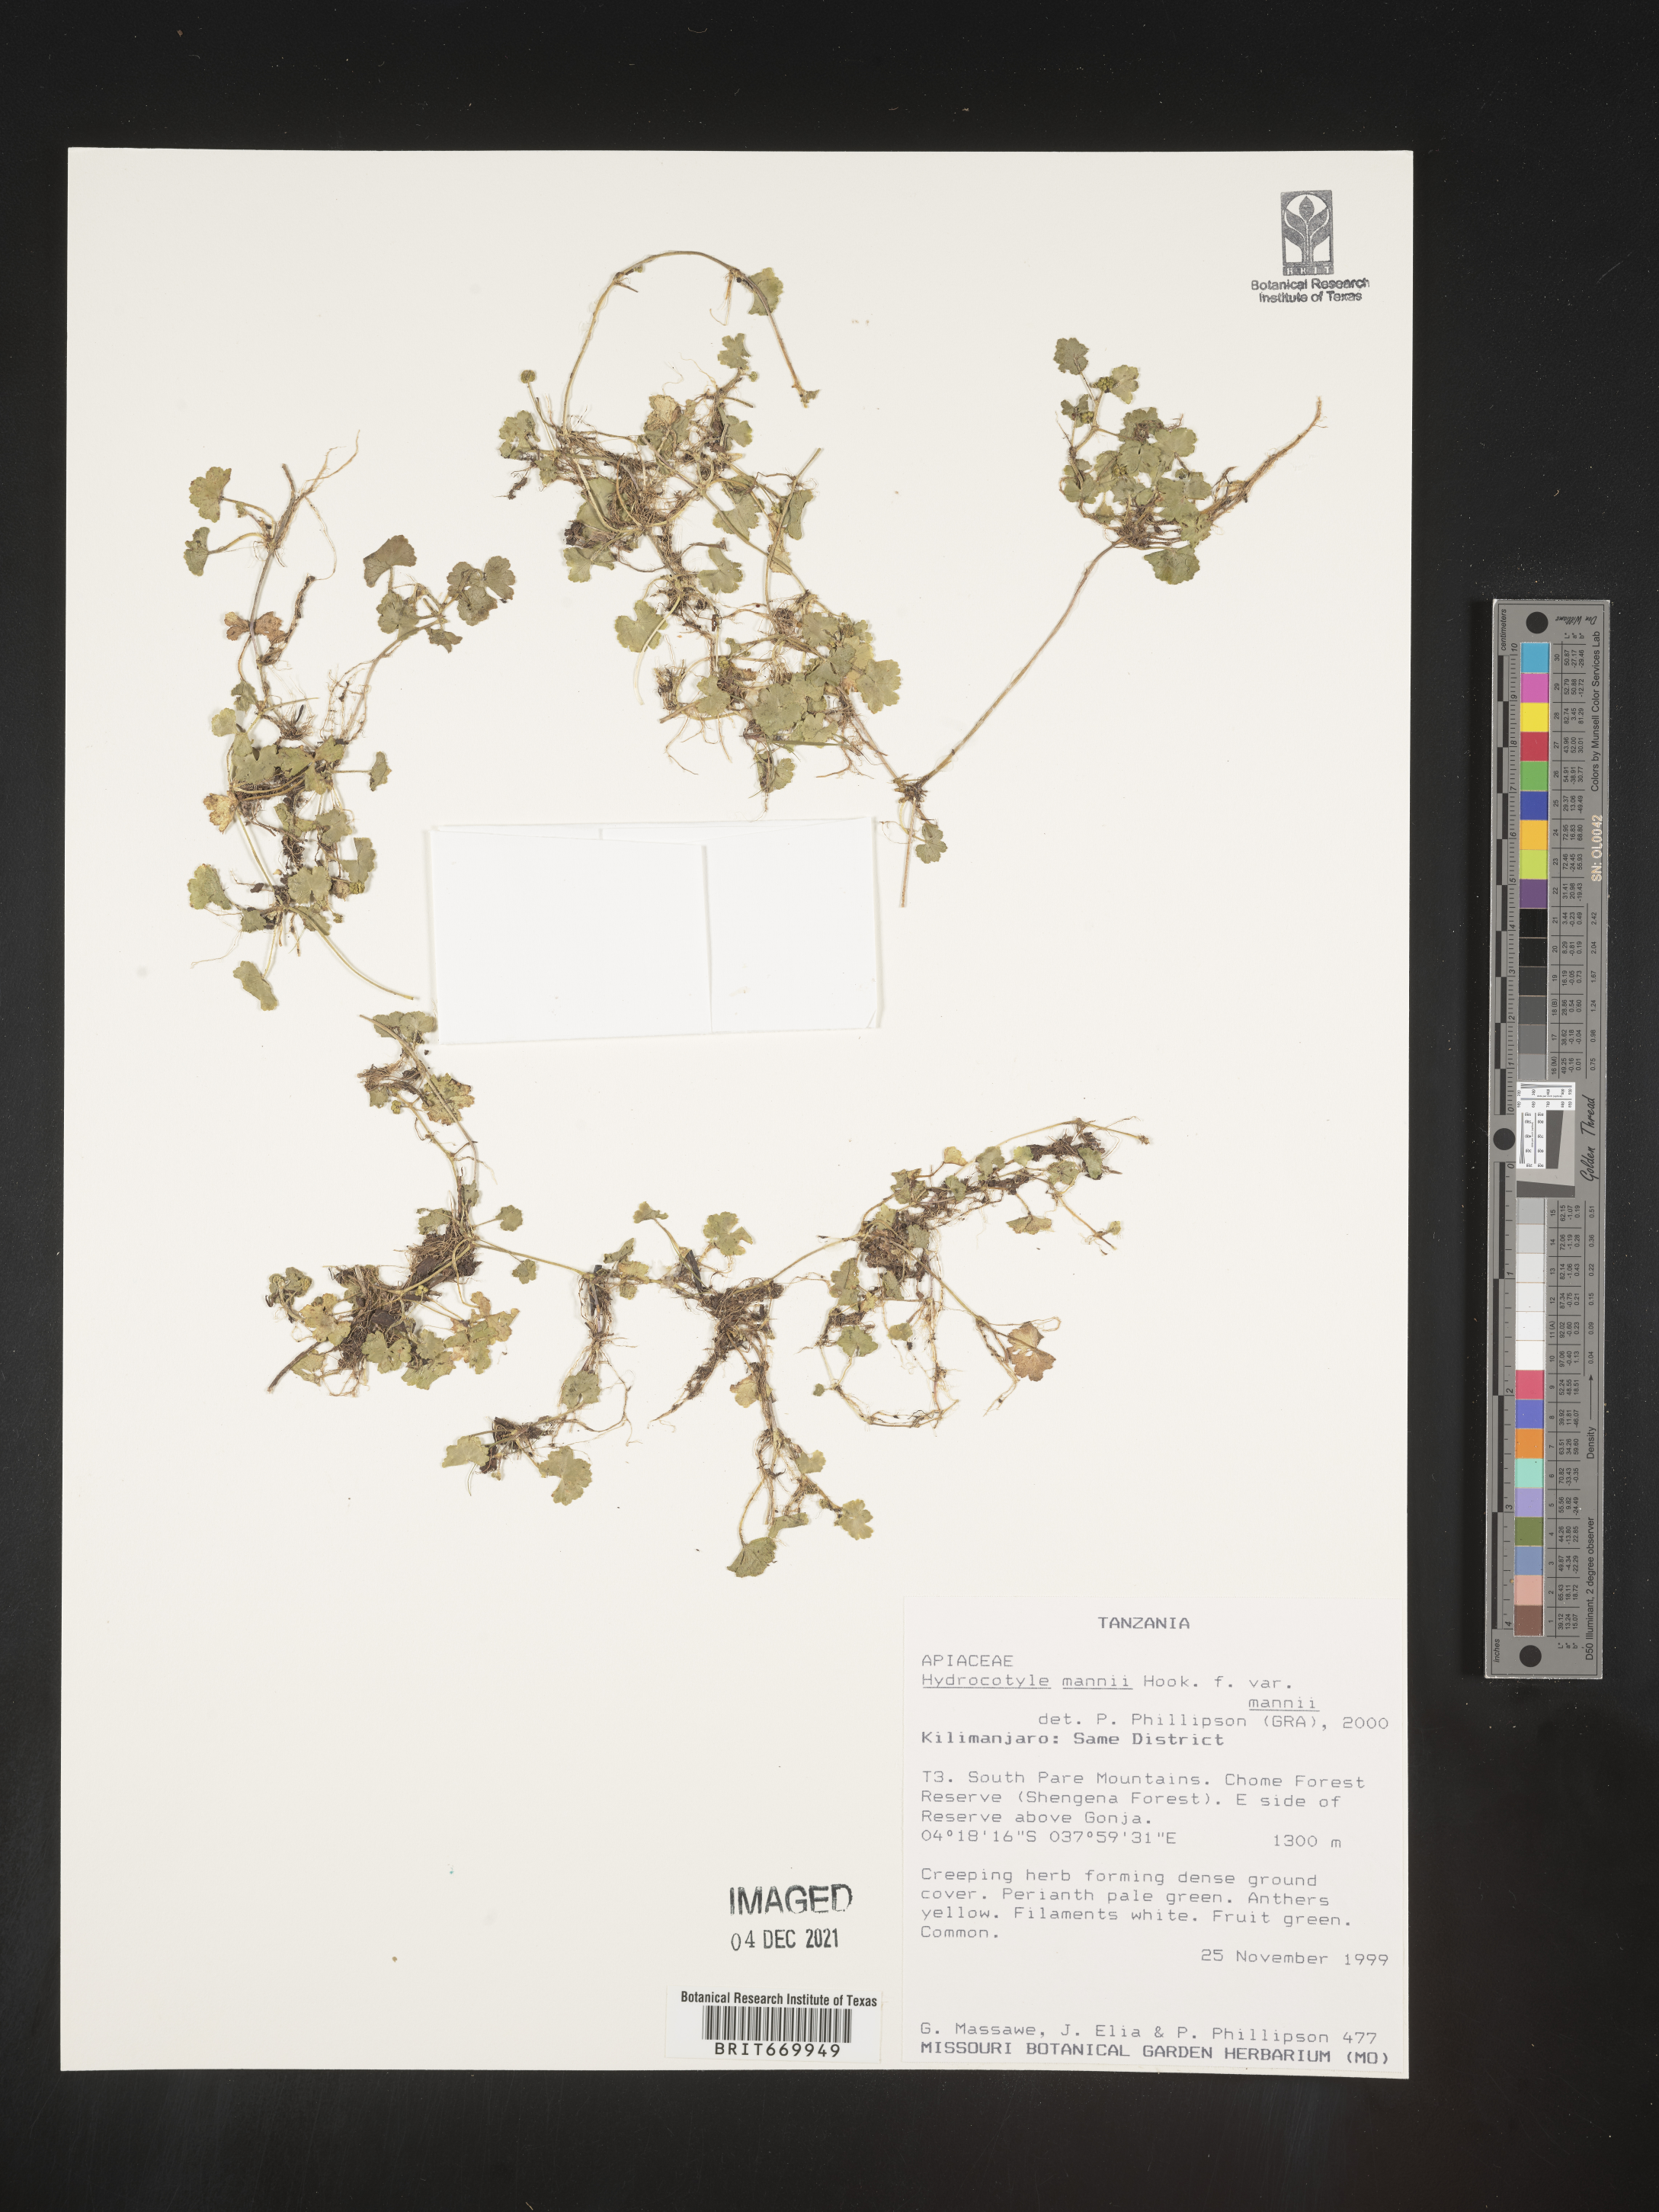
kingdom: Plantae
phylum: Tracheophyta
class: Magnoliopsida
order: Apiales
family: Araliaceae
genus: Hydrocotyle
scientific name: Hydrocotyle
